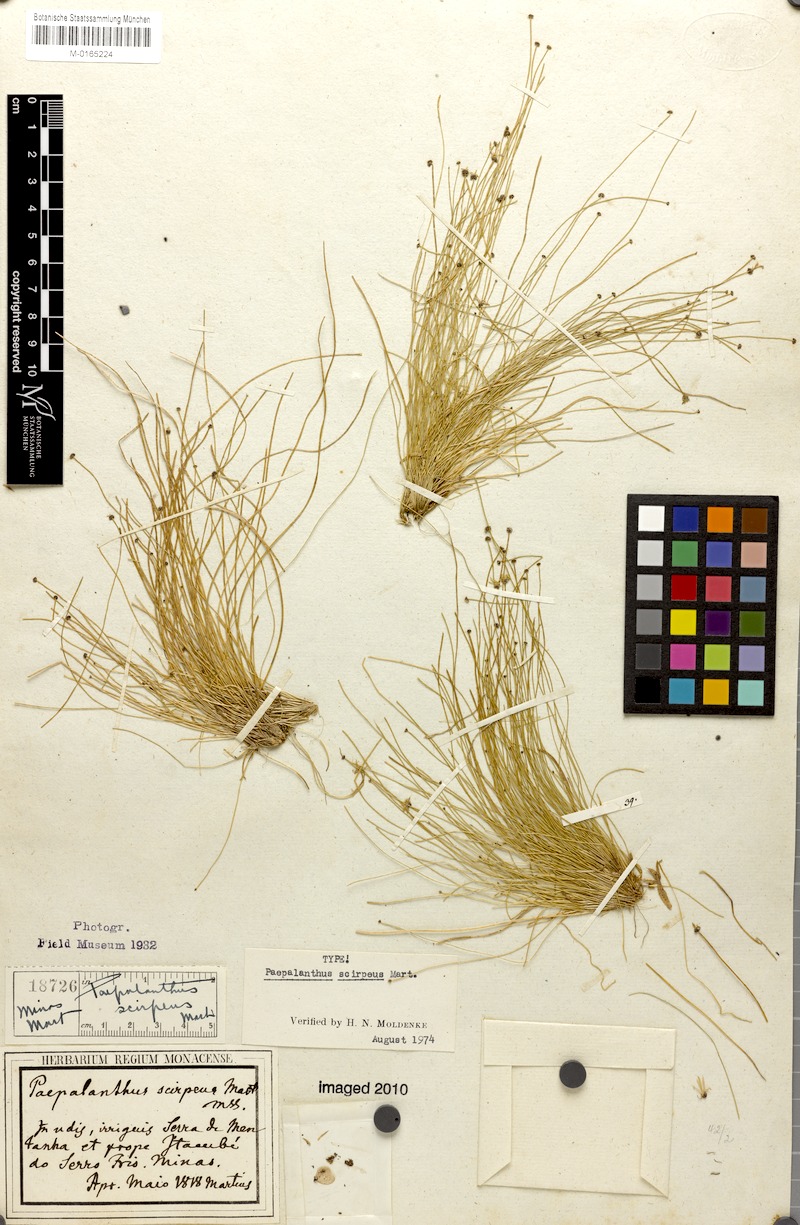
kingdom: Plantae
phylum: Tracheophyta
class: Liliopsida
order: Poales
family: Eriocaulaceae
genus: Paepalanthus
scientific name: Paepalanthus scirpeus
